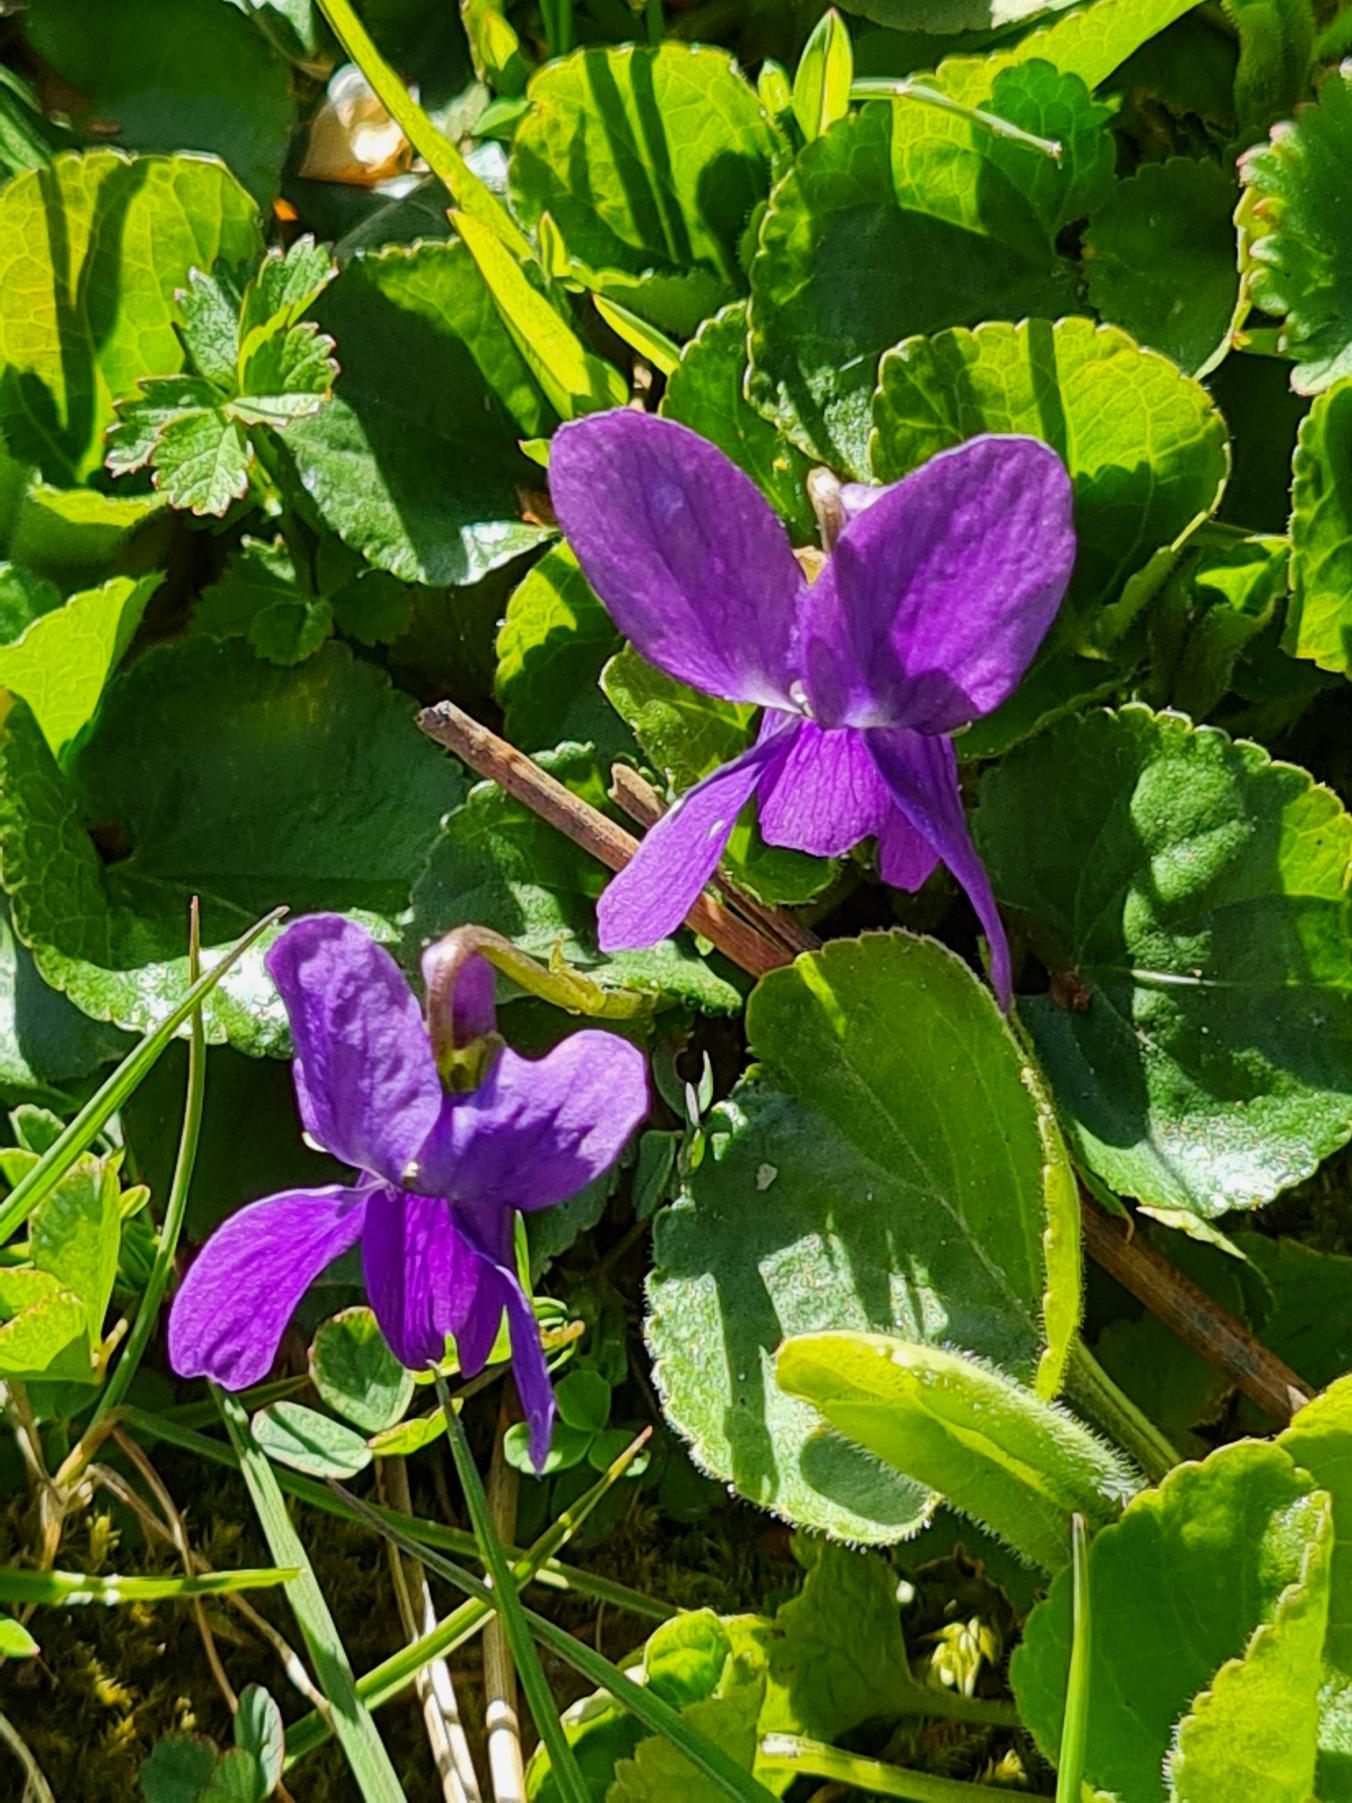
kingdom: Plantae
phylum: Tracheophyta
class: Magnoliopsida
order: Malpighiales
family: Violaceae
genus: Viola
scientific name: Viola odorata
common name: Marts-viol
